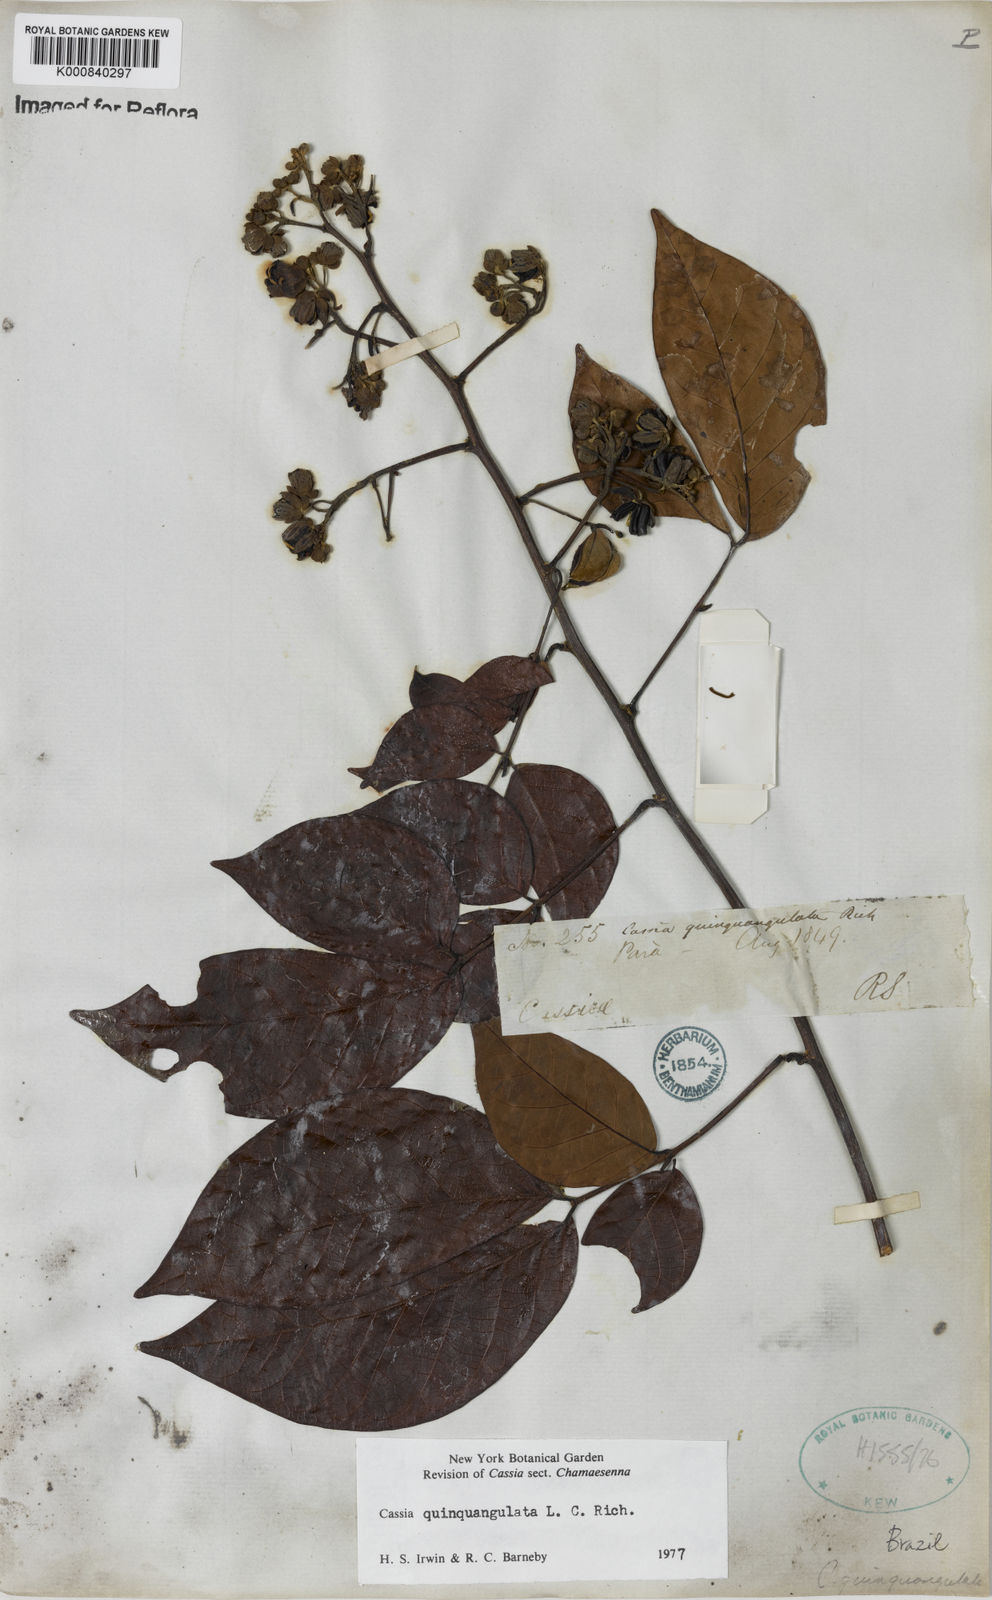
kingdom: Plantae
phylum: Tracheophyta
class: Magnoliopsida
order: Fabales
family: Fabaceae
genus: Senna
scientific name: Senna quinquangulata
